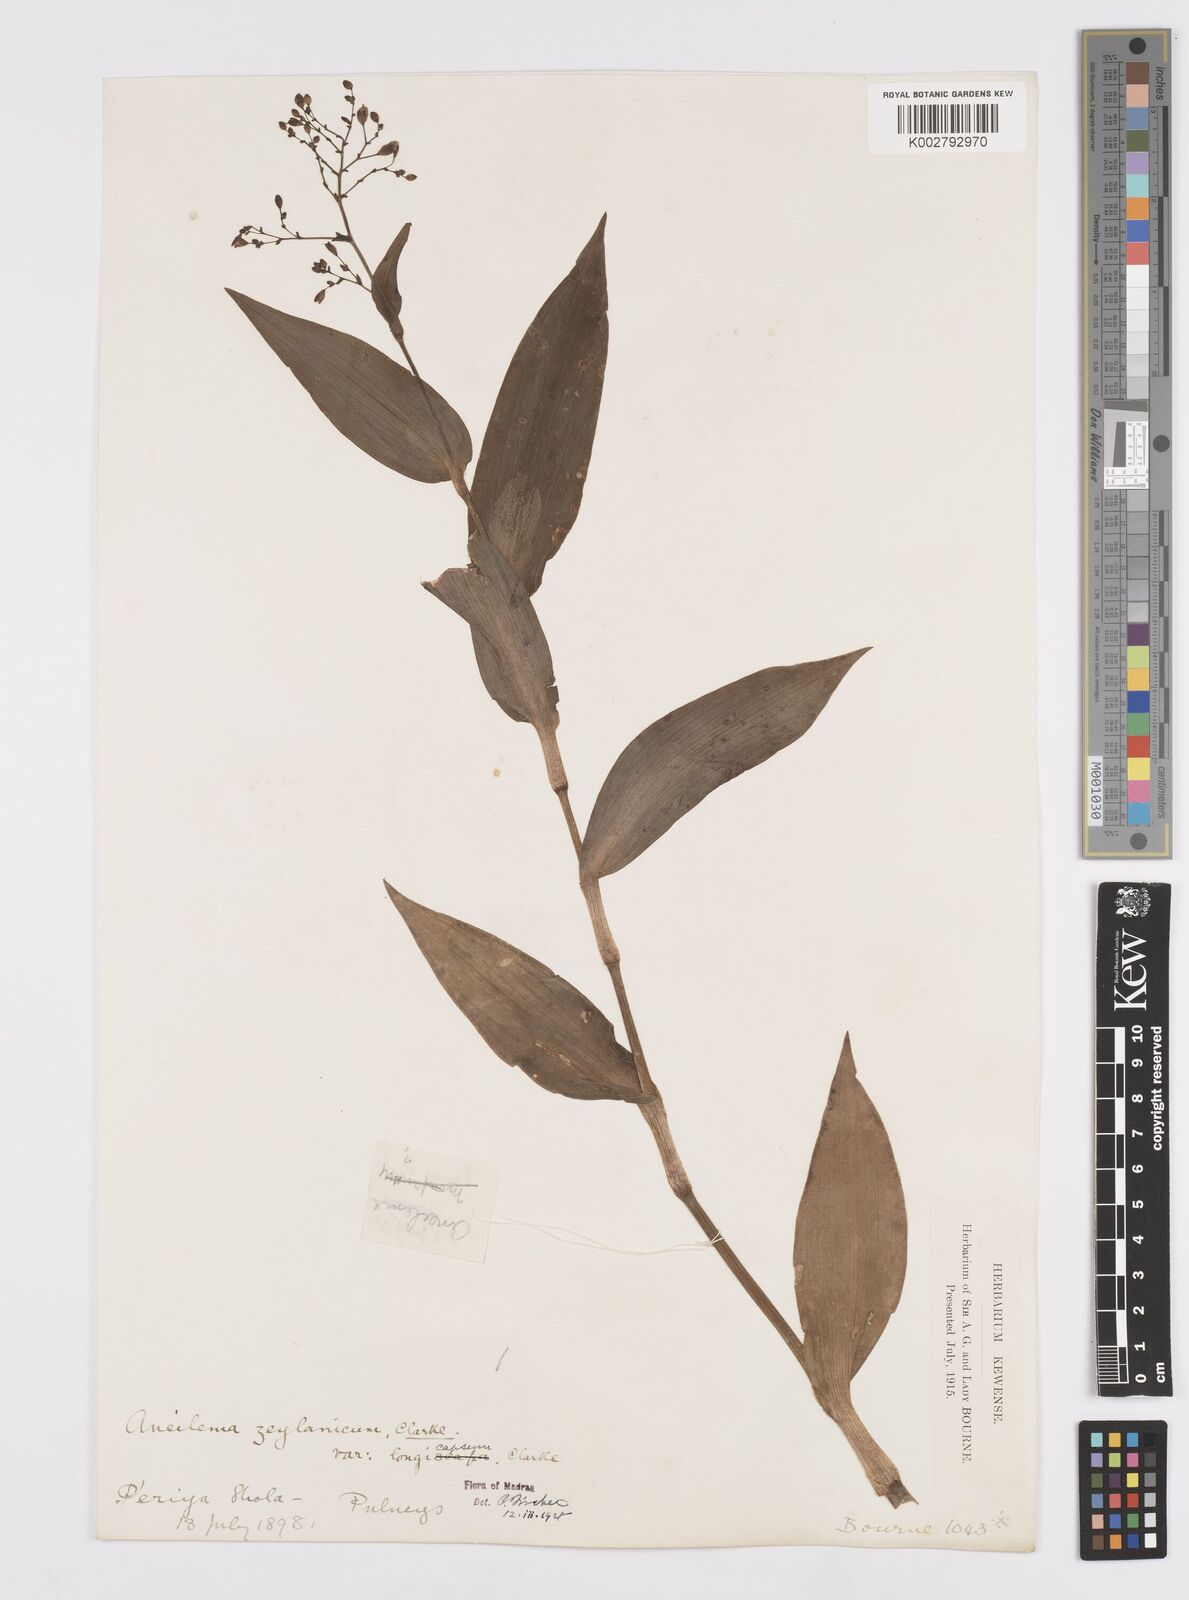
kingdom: Plantae
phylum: Tracheophyta
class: Liliopsida
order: Commelinales
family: Commelinaceae
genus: Murdannia
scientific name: Murdannia zeylanica
